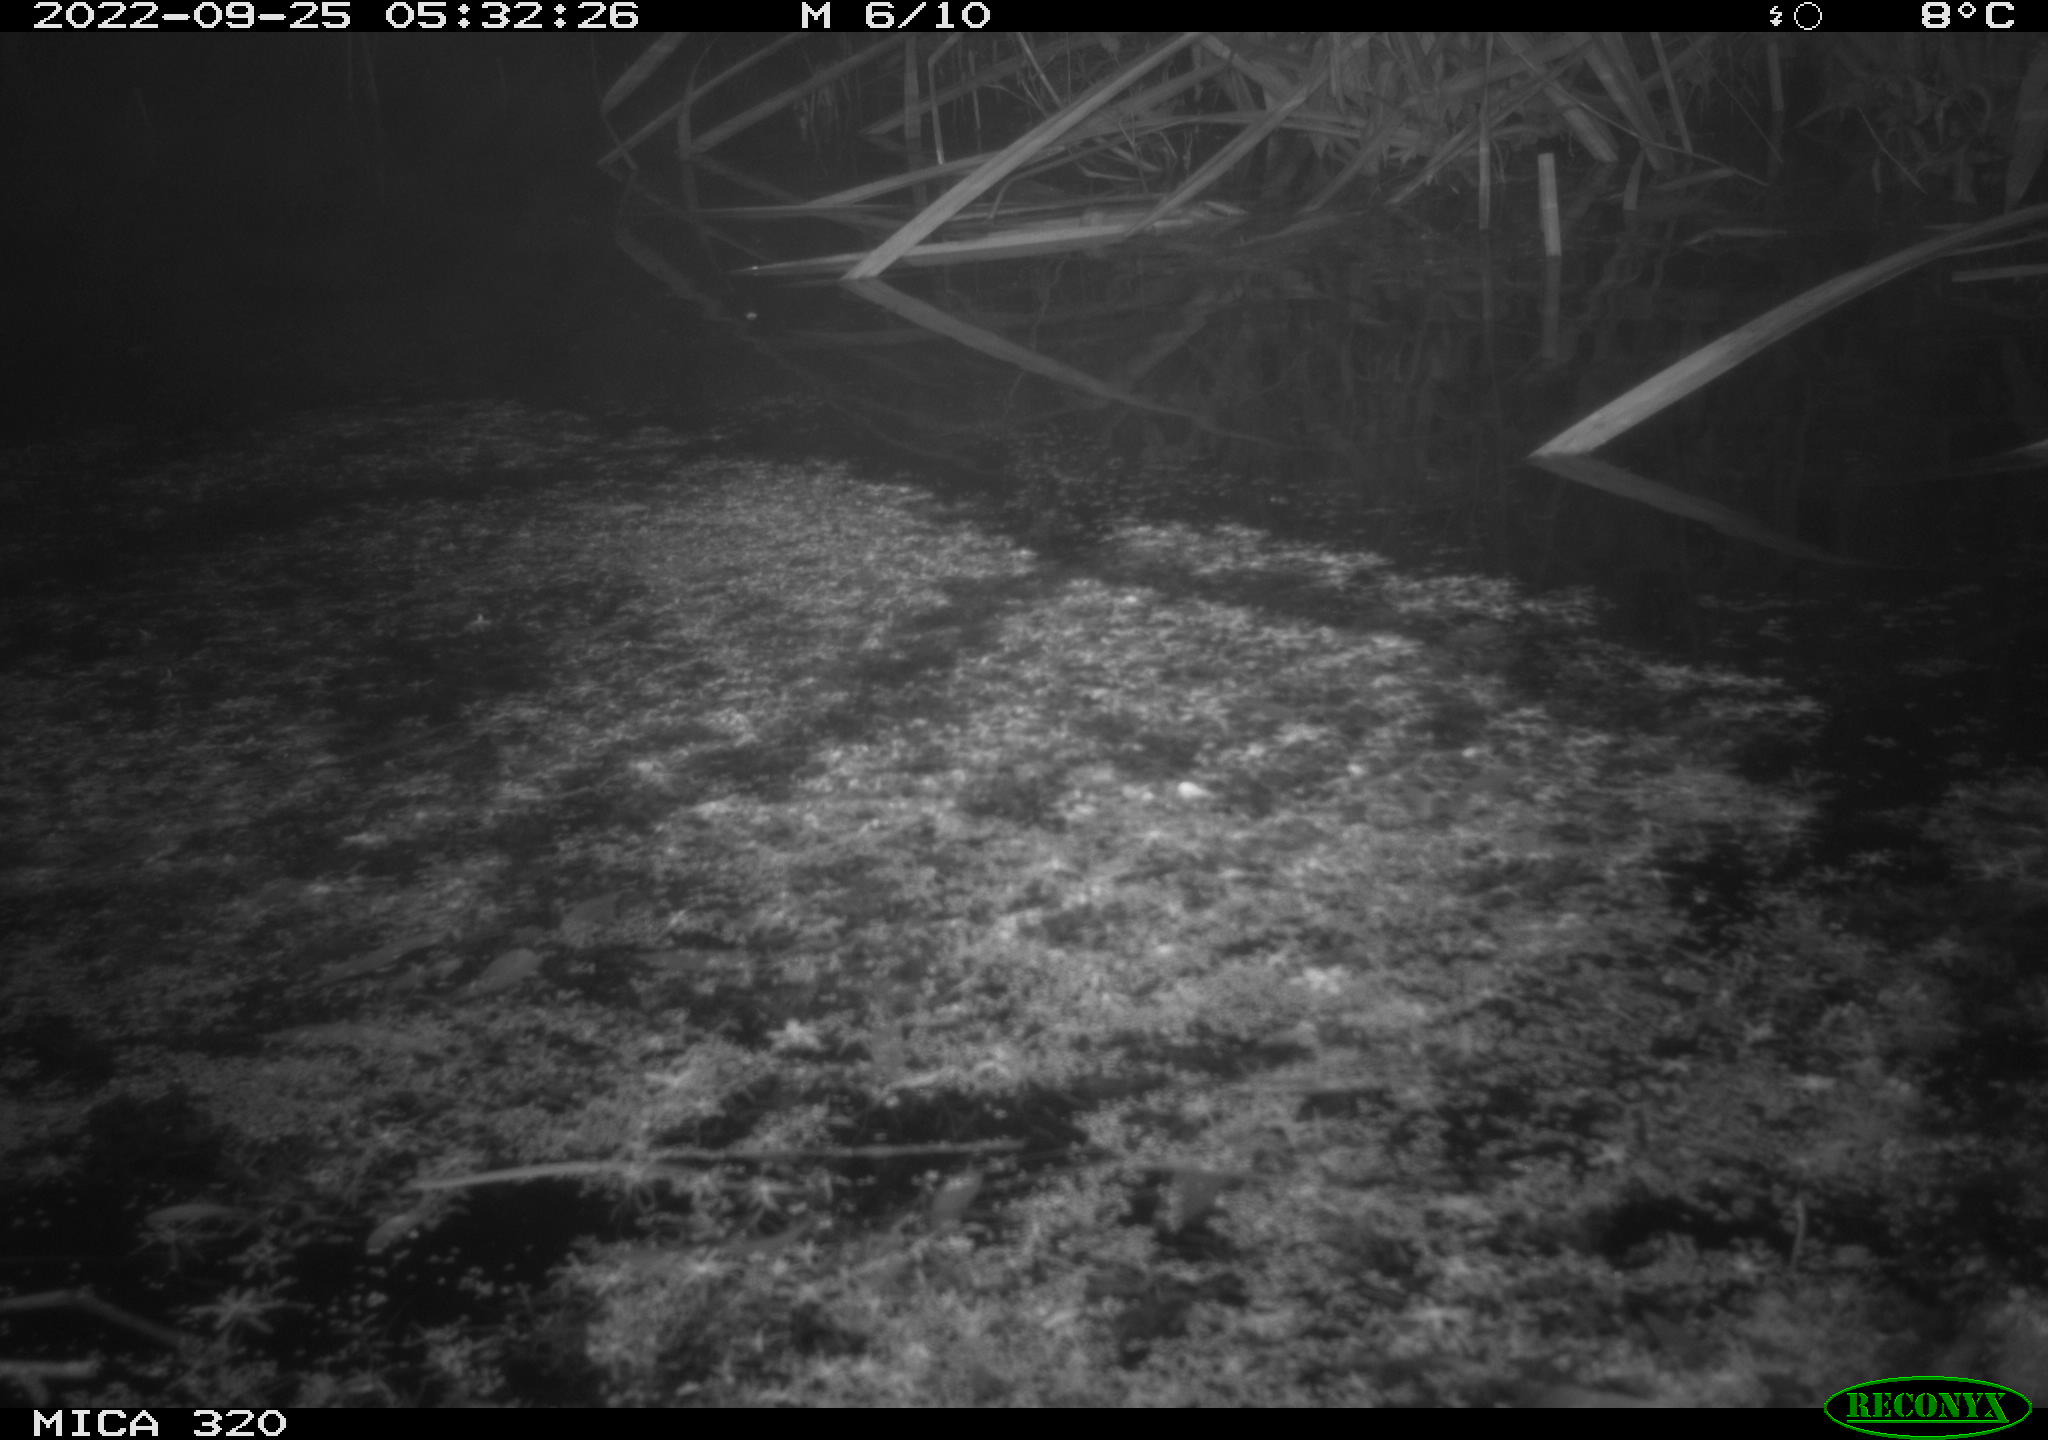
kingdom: Animalia
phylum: Chordata
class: Mammalia
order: Rodentia
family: Muridae
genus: Rattus
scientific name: Rattus norvegicus
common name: Brown rat
